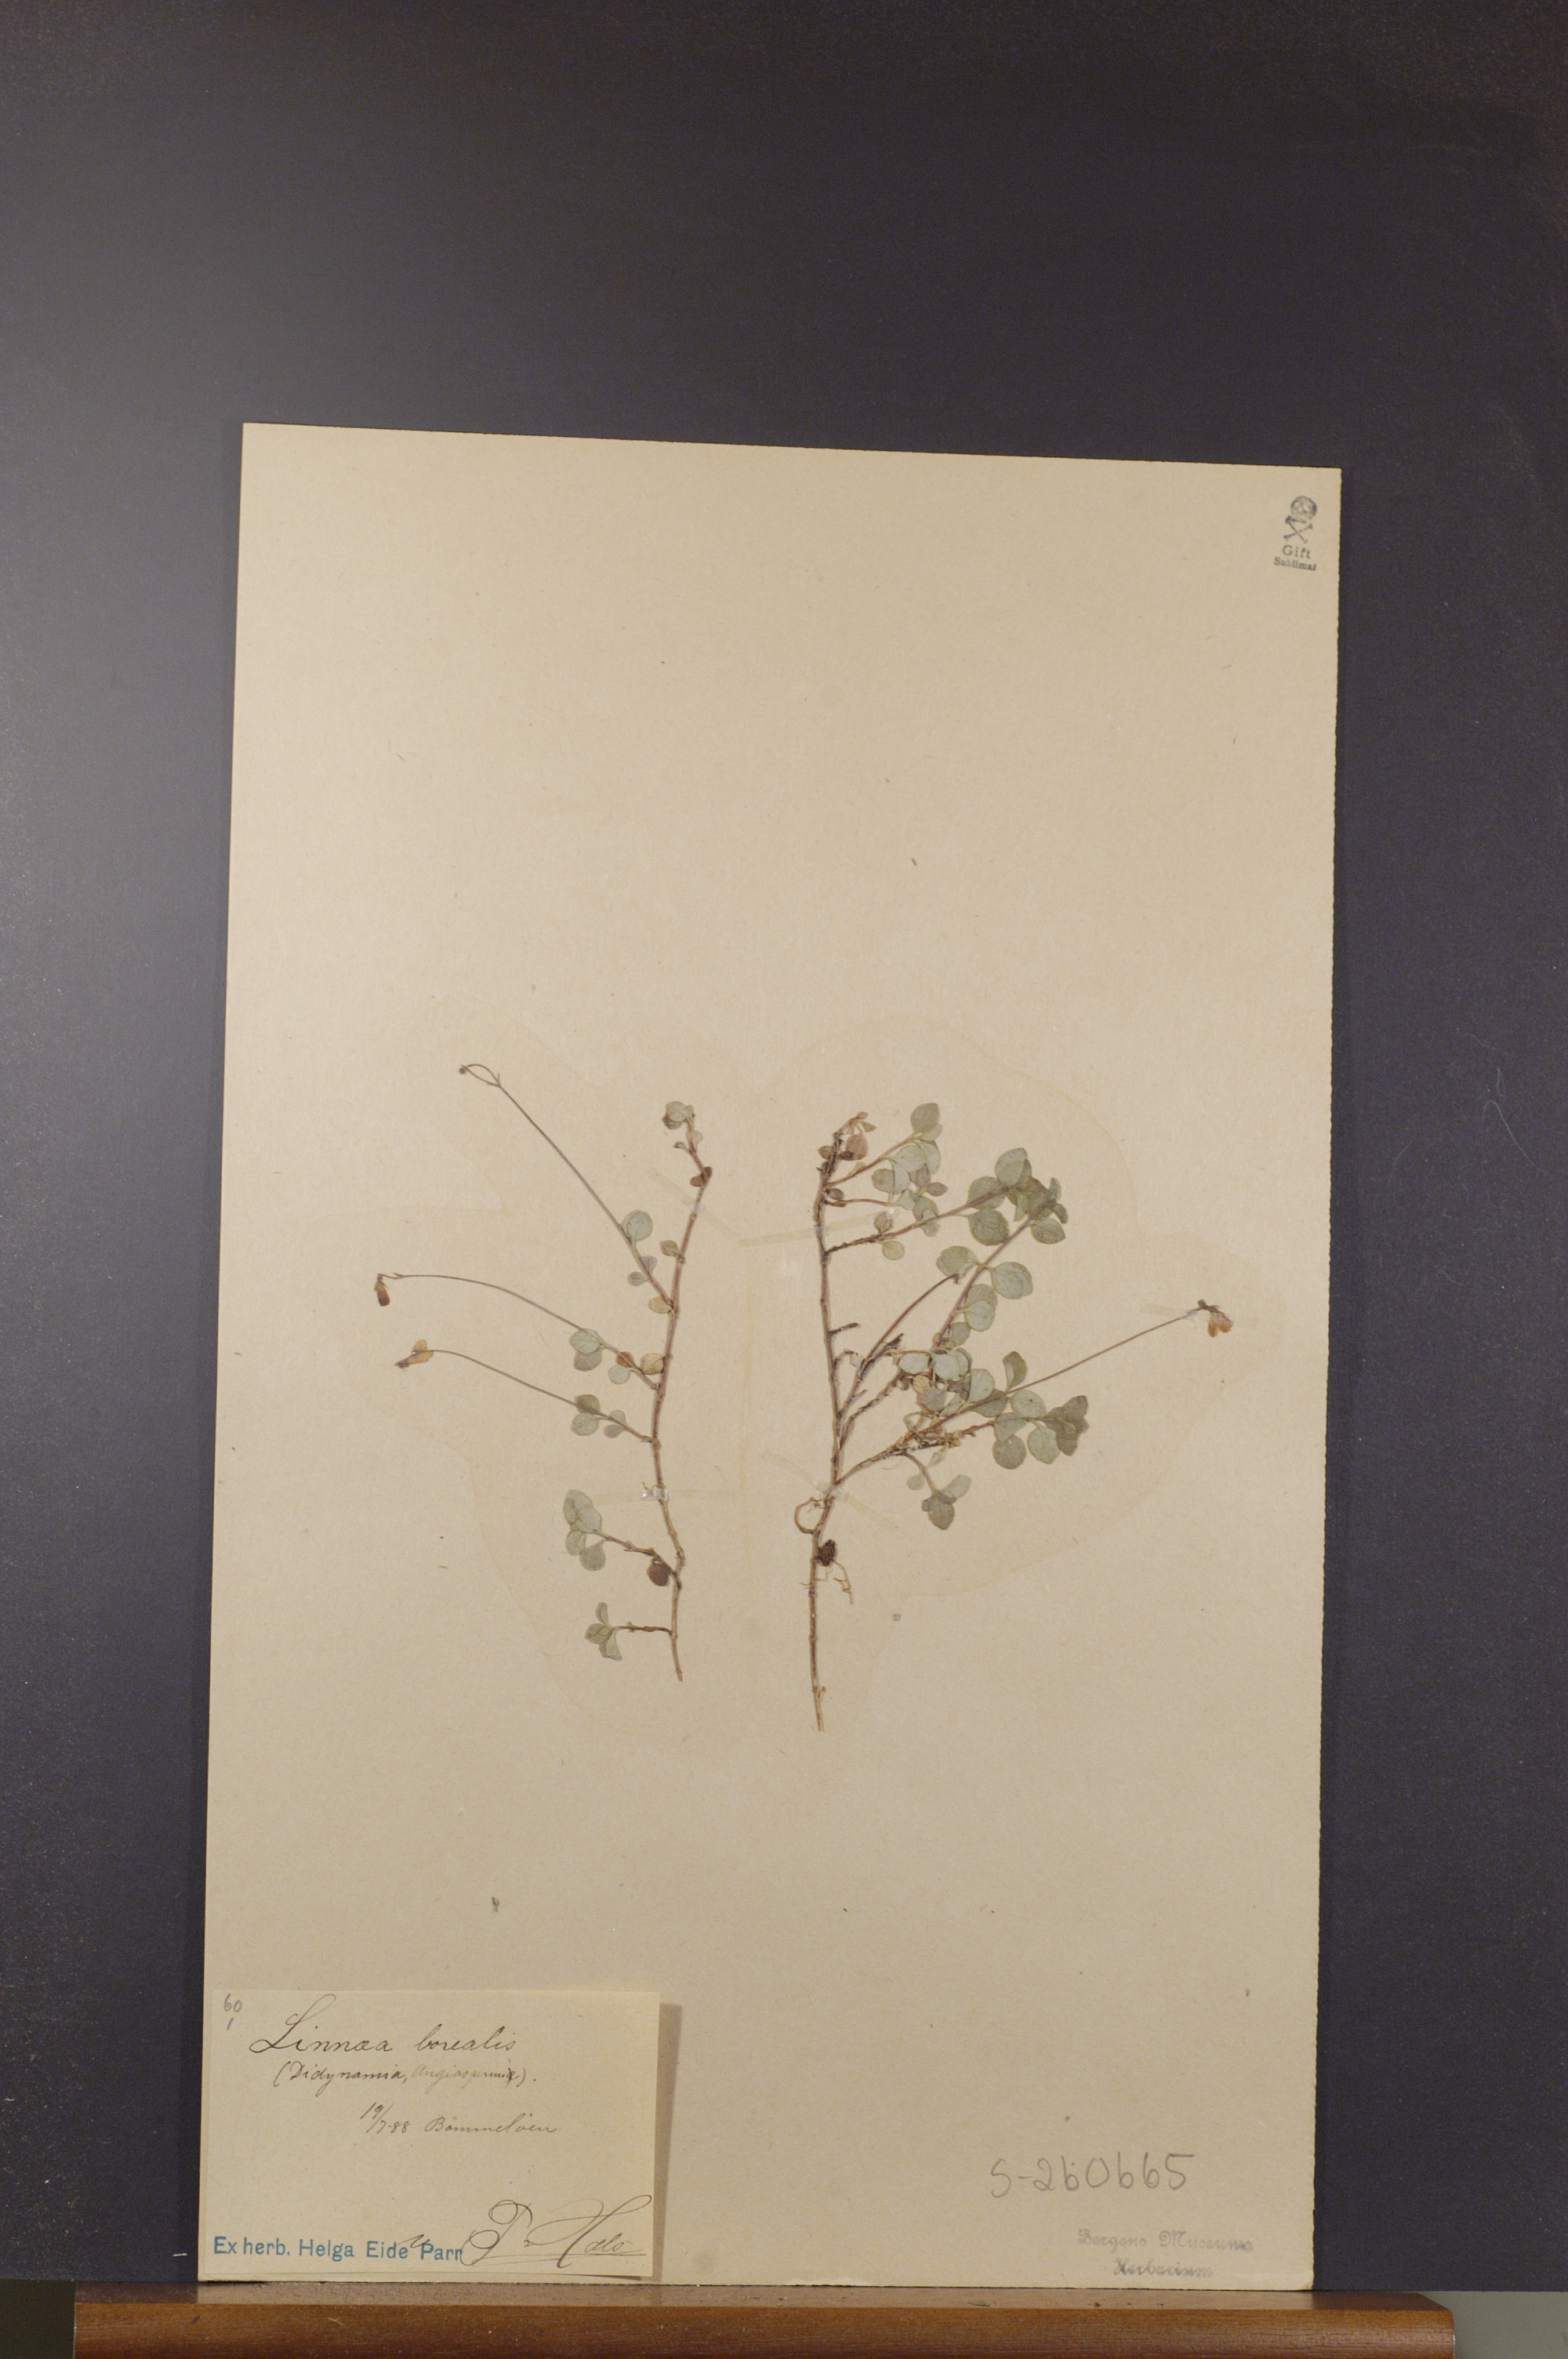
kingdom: Plantae
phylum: Tracheophyta
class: Magnoliopsida
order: Dipsacales
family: Caprifoliaceae
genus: Linnaea
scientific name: Linnaea borealis
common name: Twinflower
